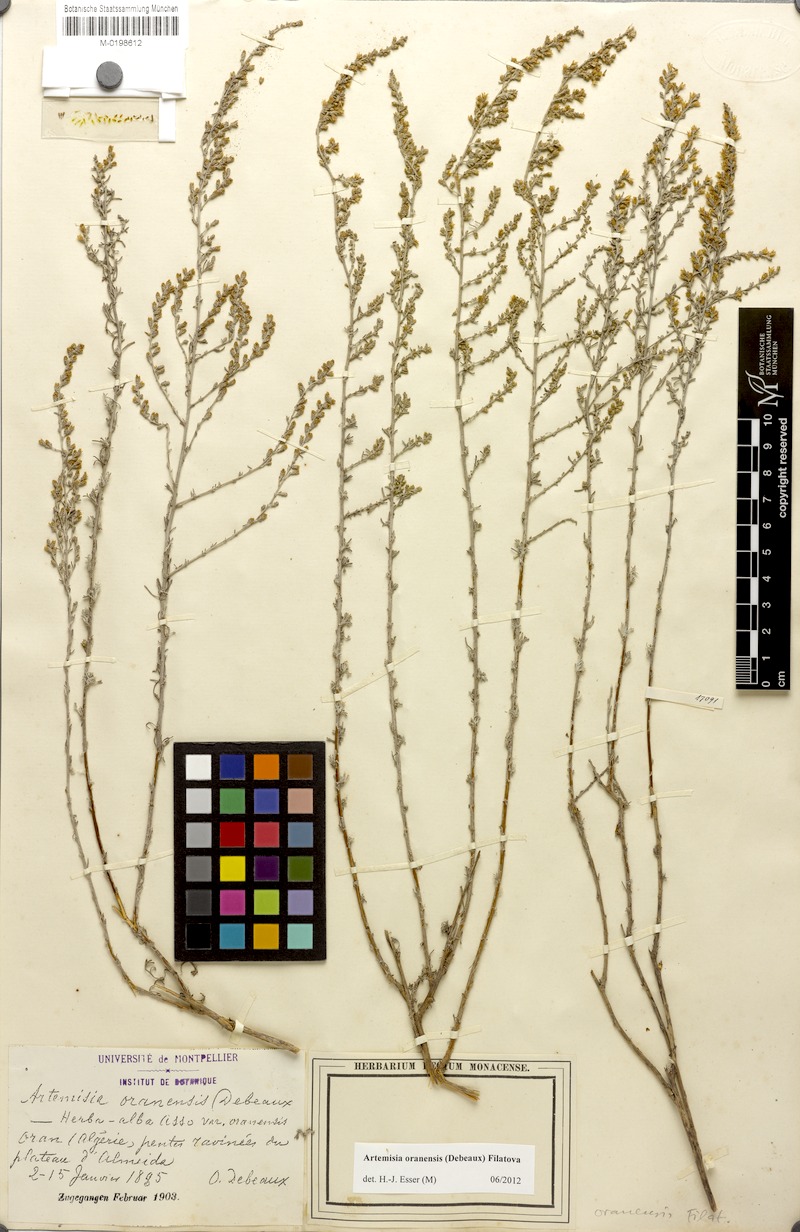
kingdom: Plantae
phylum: Tracheophyta
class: Magnoliopsida
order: Asterales
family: Asteraceae
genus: Artemisia
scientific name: Artemisia oranensis
